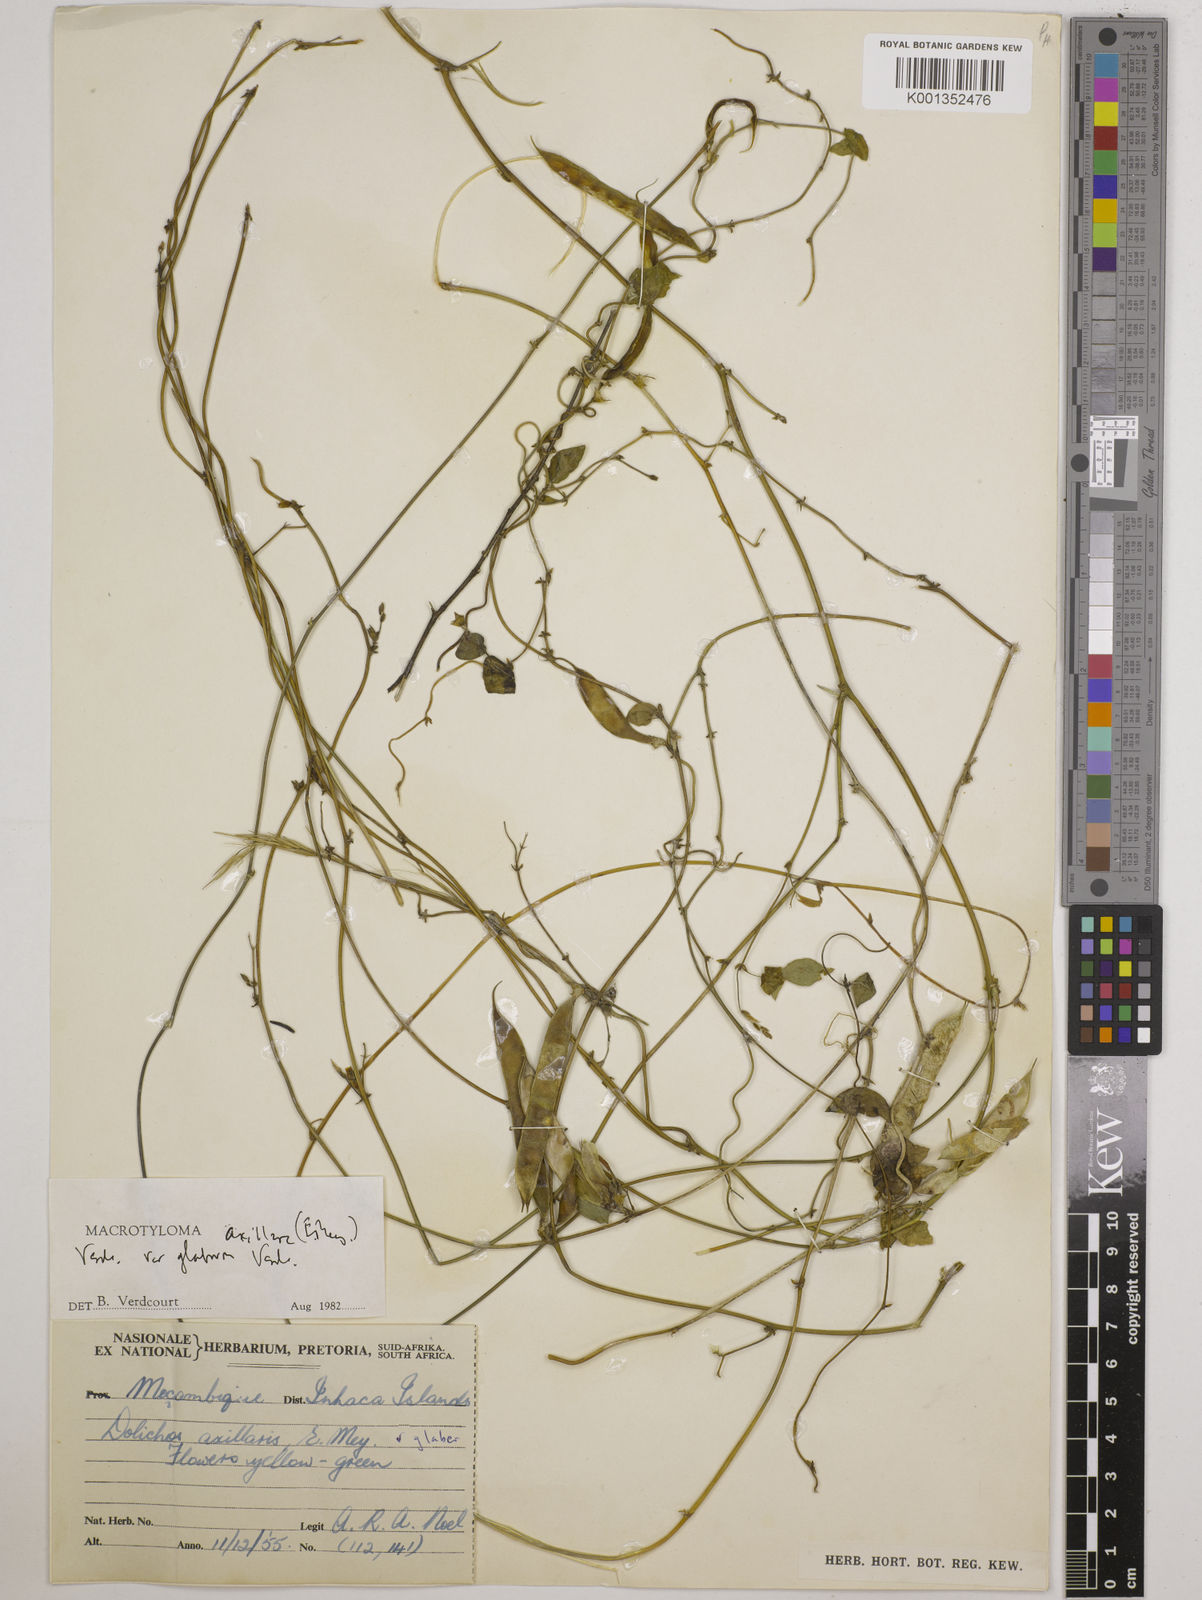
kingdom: Plantae
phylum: Tracheophyta
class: Magnoliopsida
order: Fabales
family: Fabaceae
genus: Macrotyloma
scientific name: Macrotyloma
